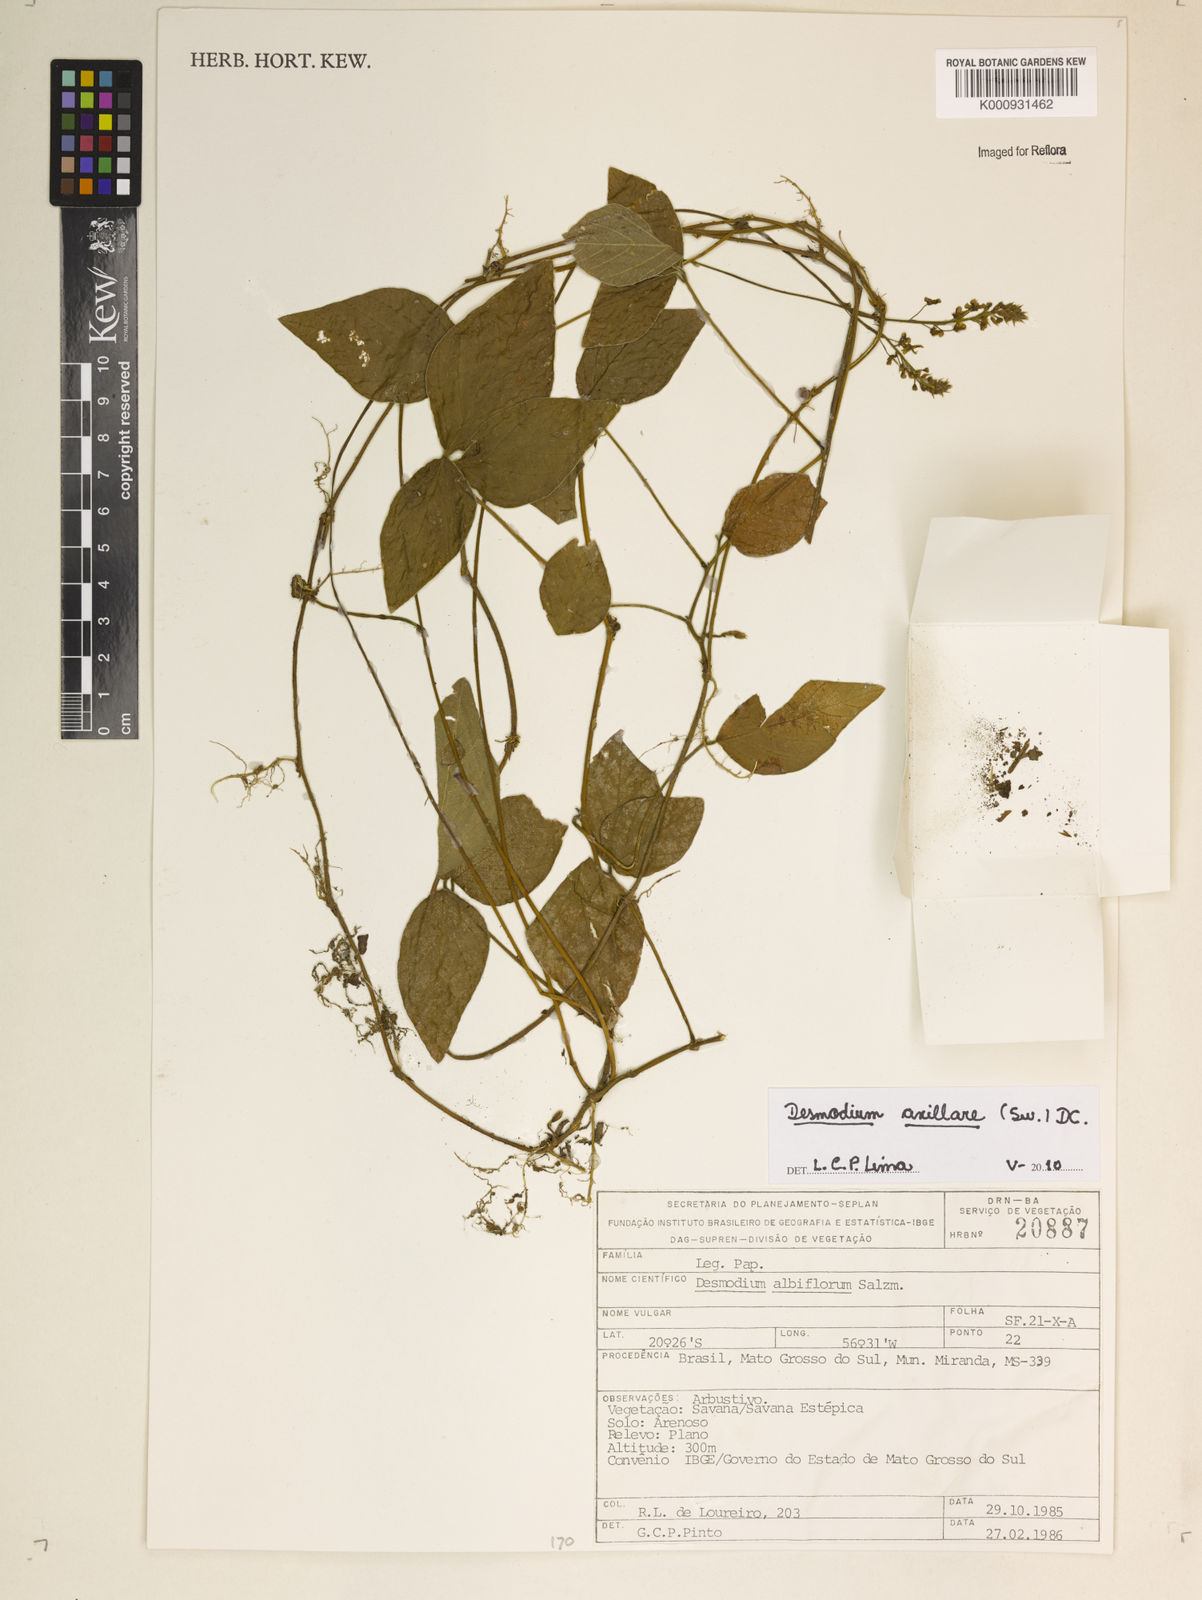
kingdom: Plantae
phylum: Tracheophyta
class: Magnoliopsida
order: Fabales
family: Fabaceae
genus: Desmodium
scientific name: Desmodium axillare
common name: Wire with
